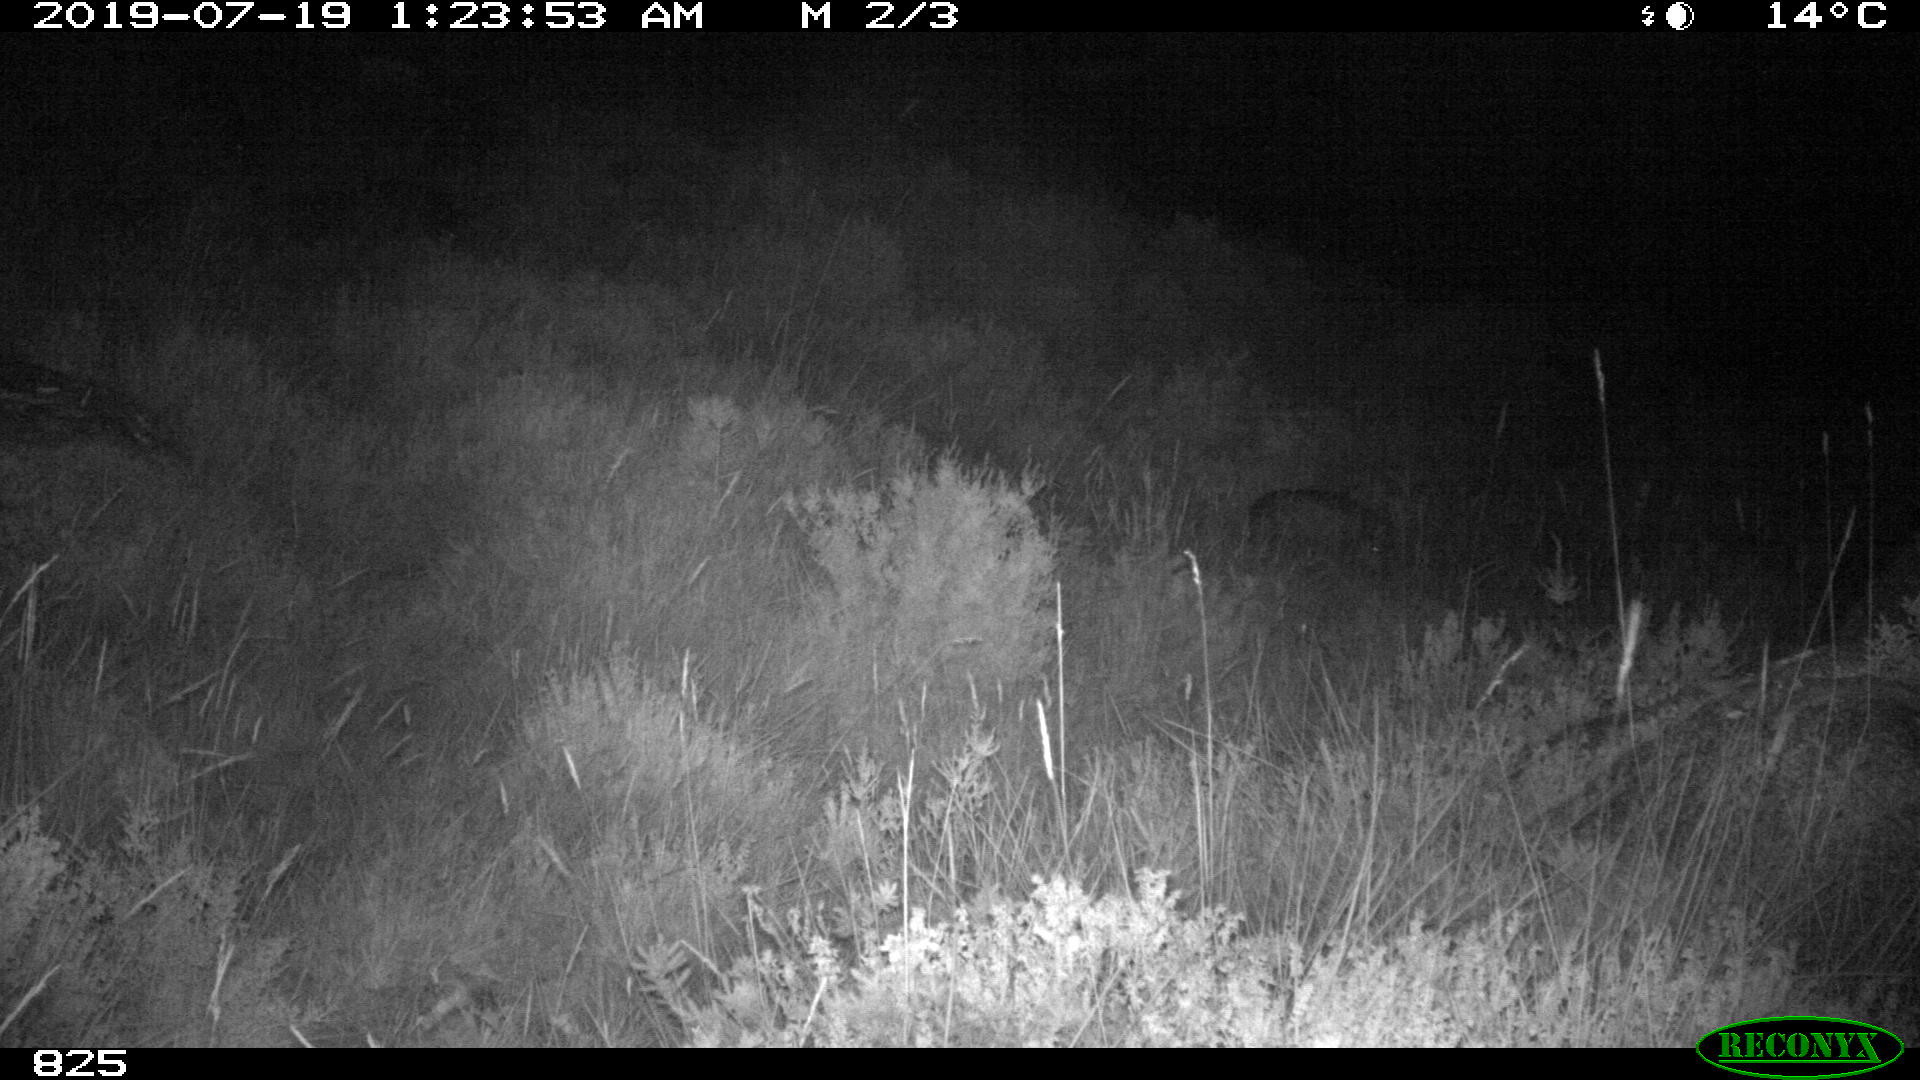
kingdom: Animalia
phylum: Chordata
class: Mammalia
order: Artiodactyla
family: Suidae
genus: Sus
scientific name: Sus scrofa
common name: Wild boar
